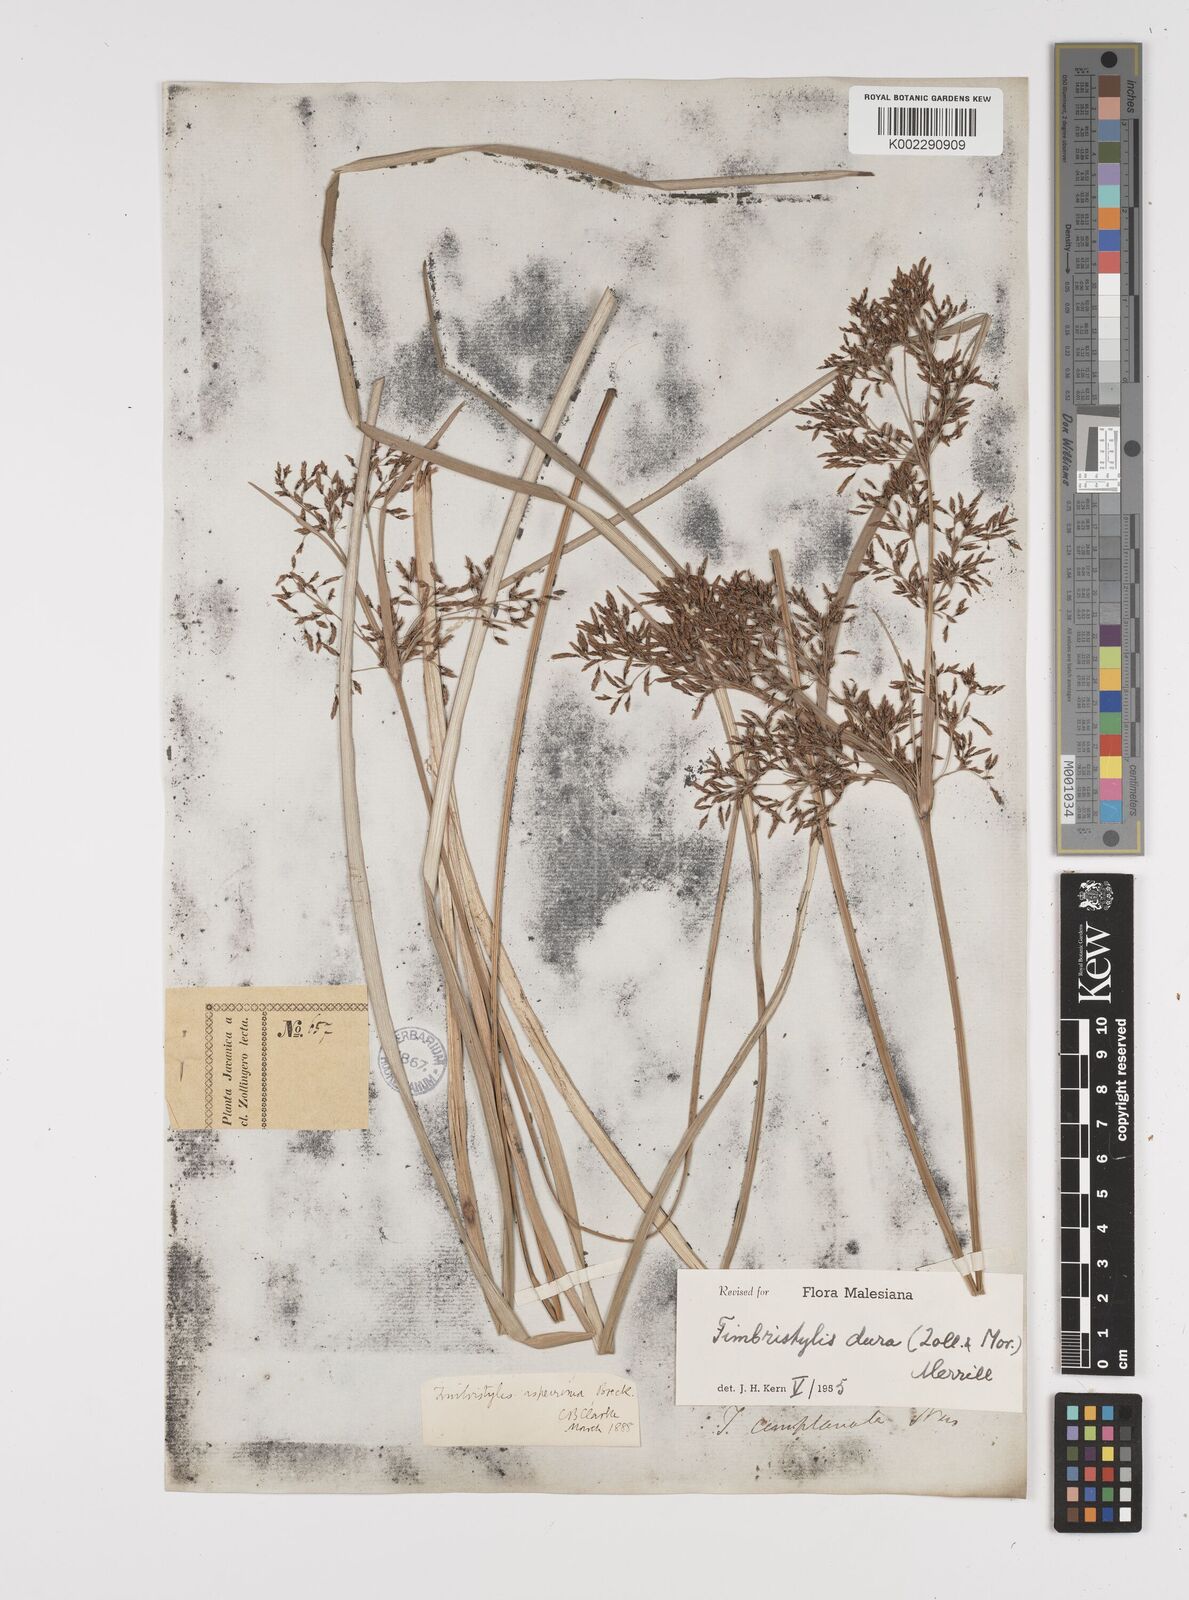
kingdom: Plantae
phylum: Tracheophyta
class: Liliopsida
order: Poales
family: Cyperaceae
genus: Fimbristylis
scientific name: Fimbristylis dura
